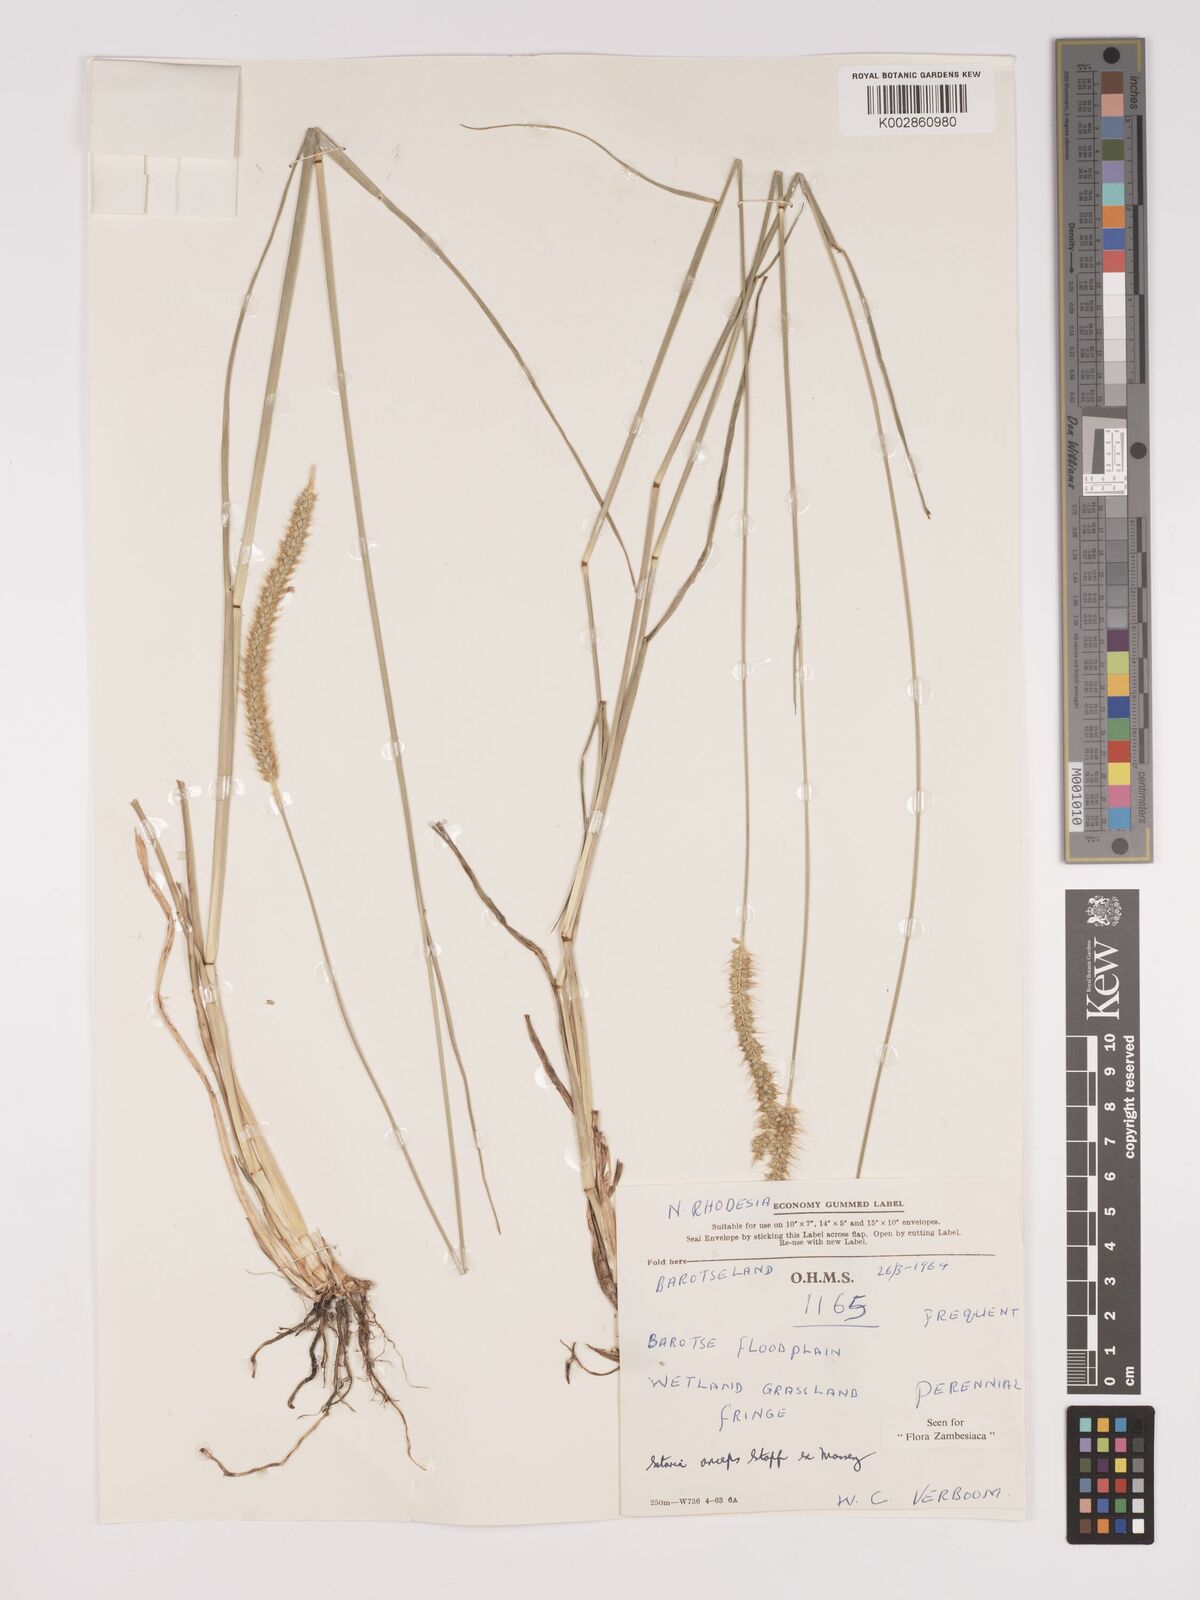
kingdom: Plantae
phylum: Tracheophyta
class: Liliopsida
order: Poales
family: Poaceae
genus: Setaria
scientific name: Setaria
